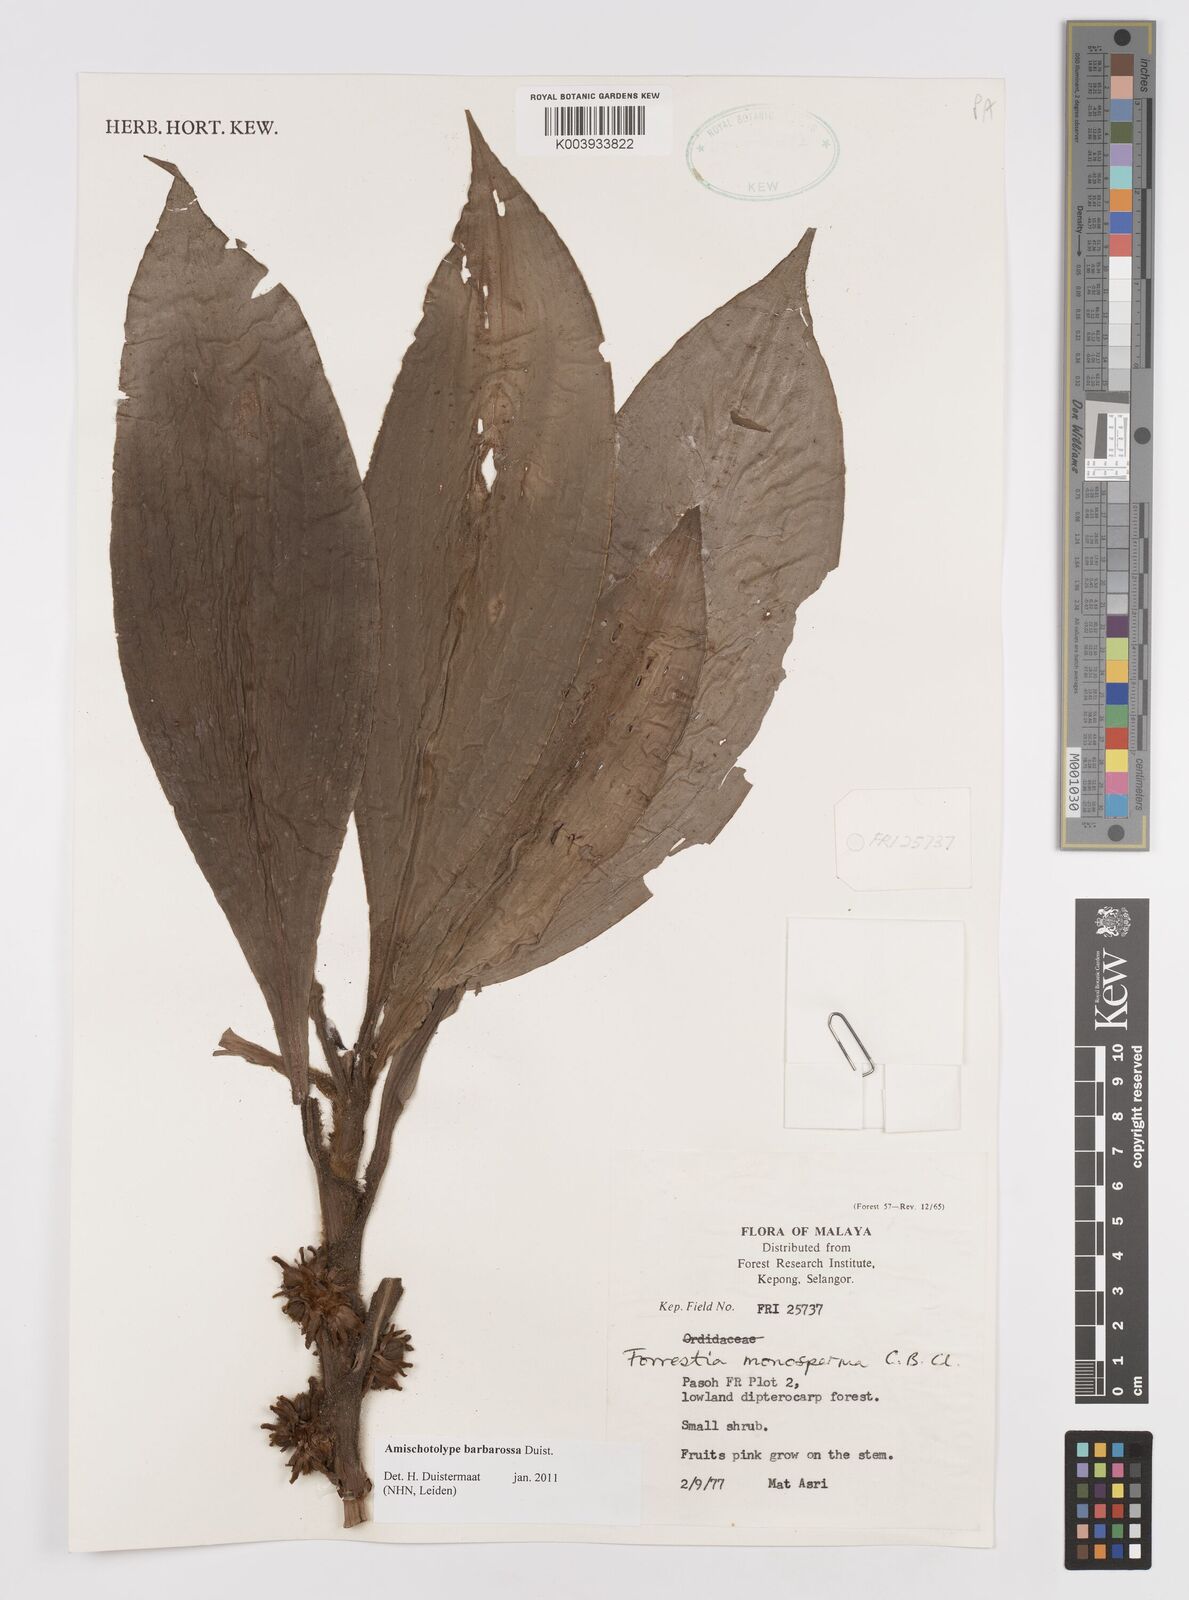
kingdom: Plantae
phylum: Tracheophyta
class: Liliopsida
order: Commelinales
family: Commelinaceae
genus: Amischotolype
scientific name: Amischotolype barbarossa
